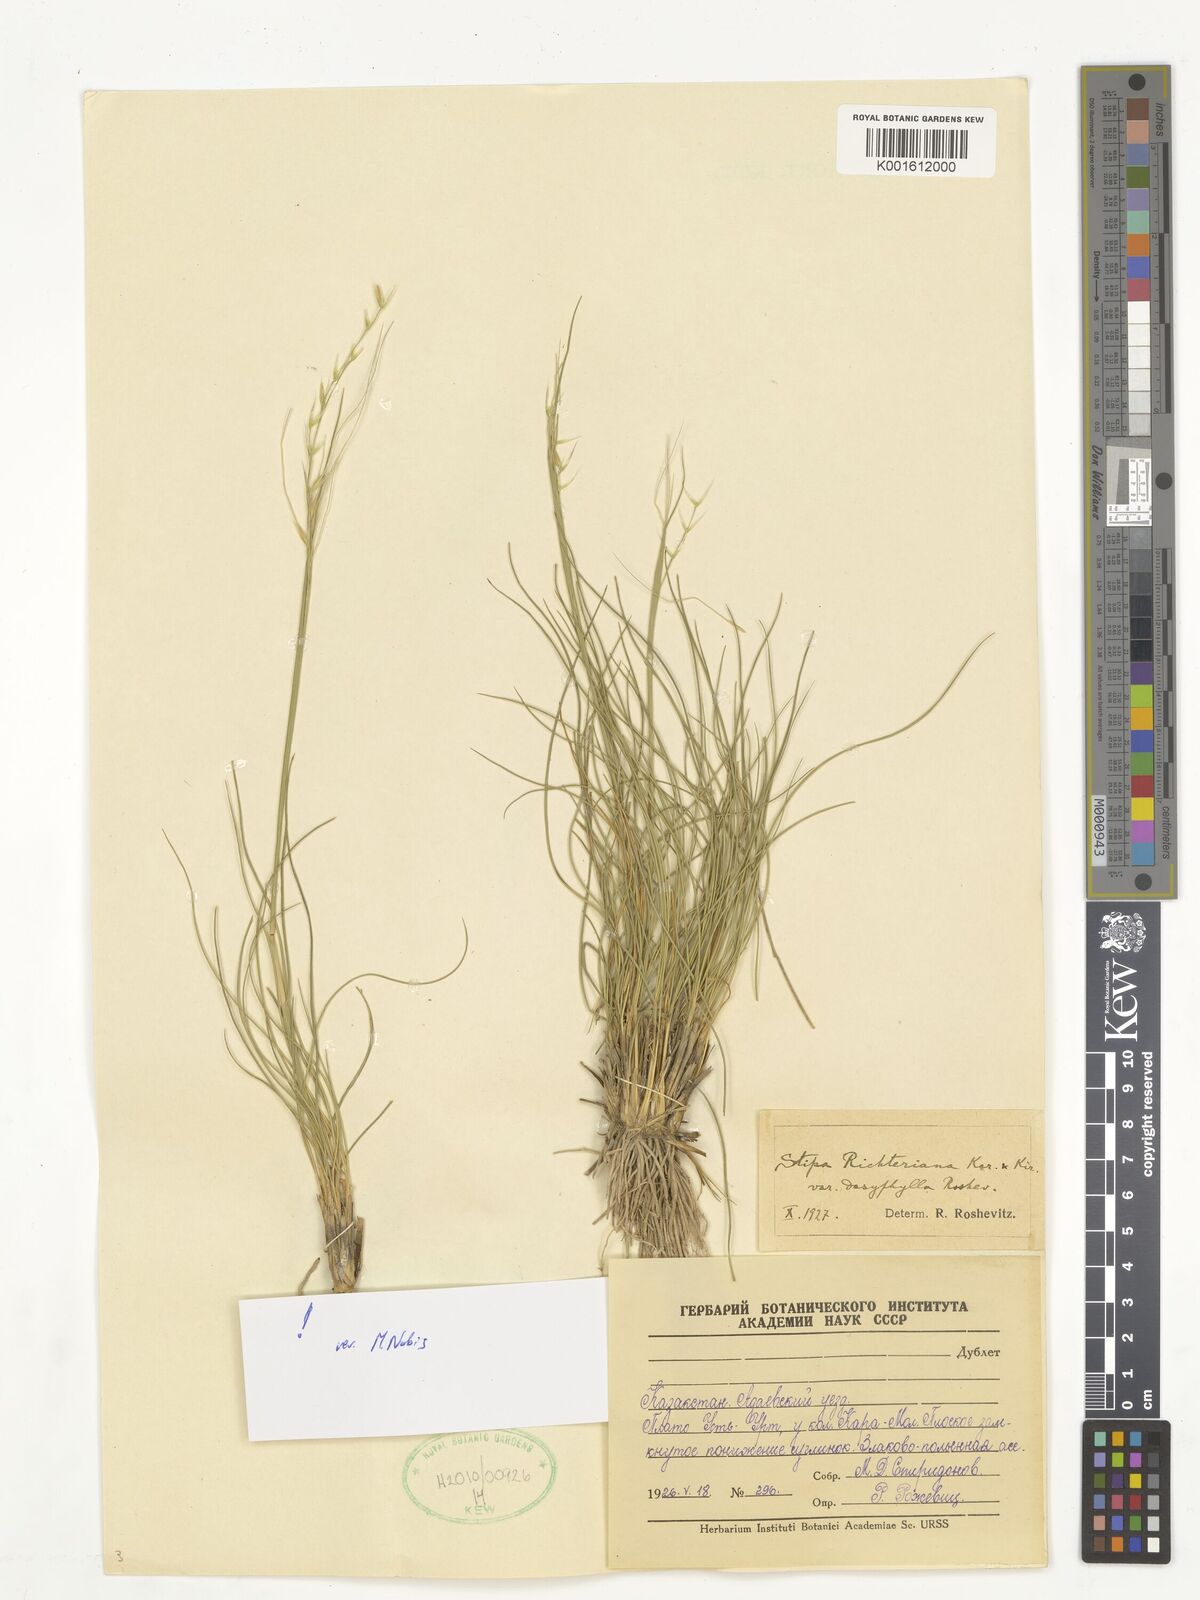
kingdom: Plantae
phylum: Tracheophyta
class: Liliopsida
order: Poales
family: Poaceae
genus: Stipa
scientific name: Stipa richteriana
